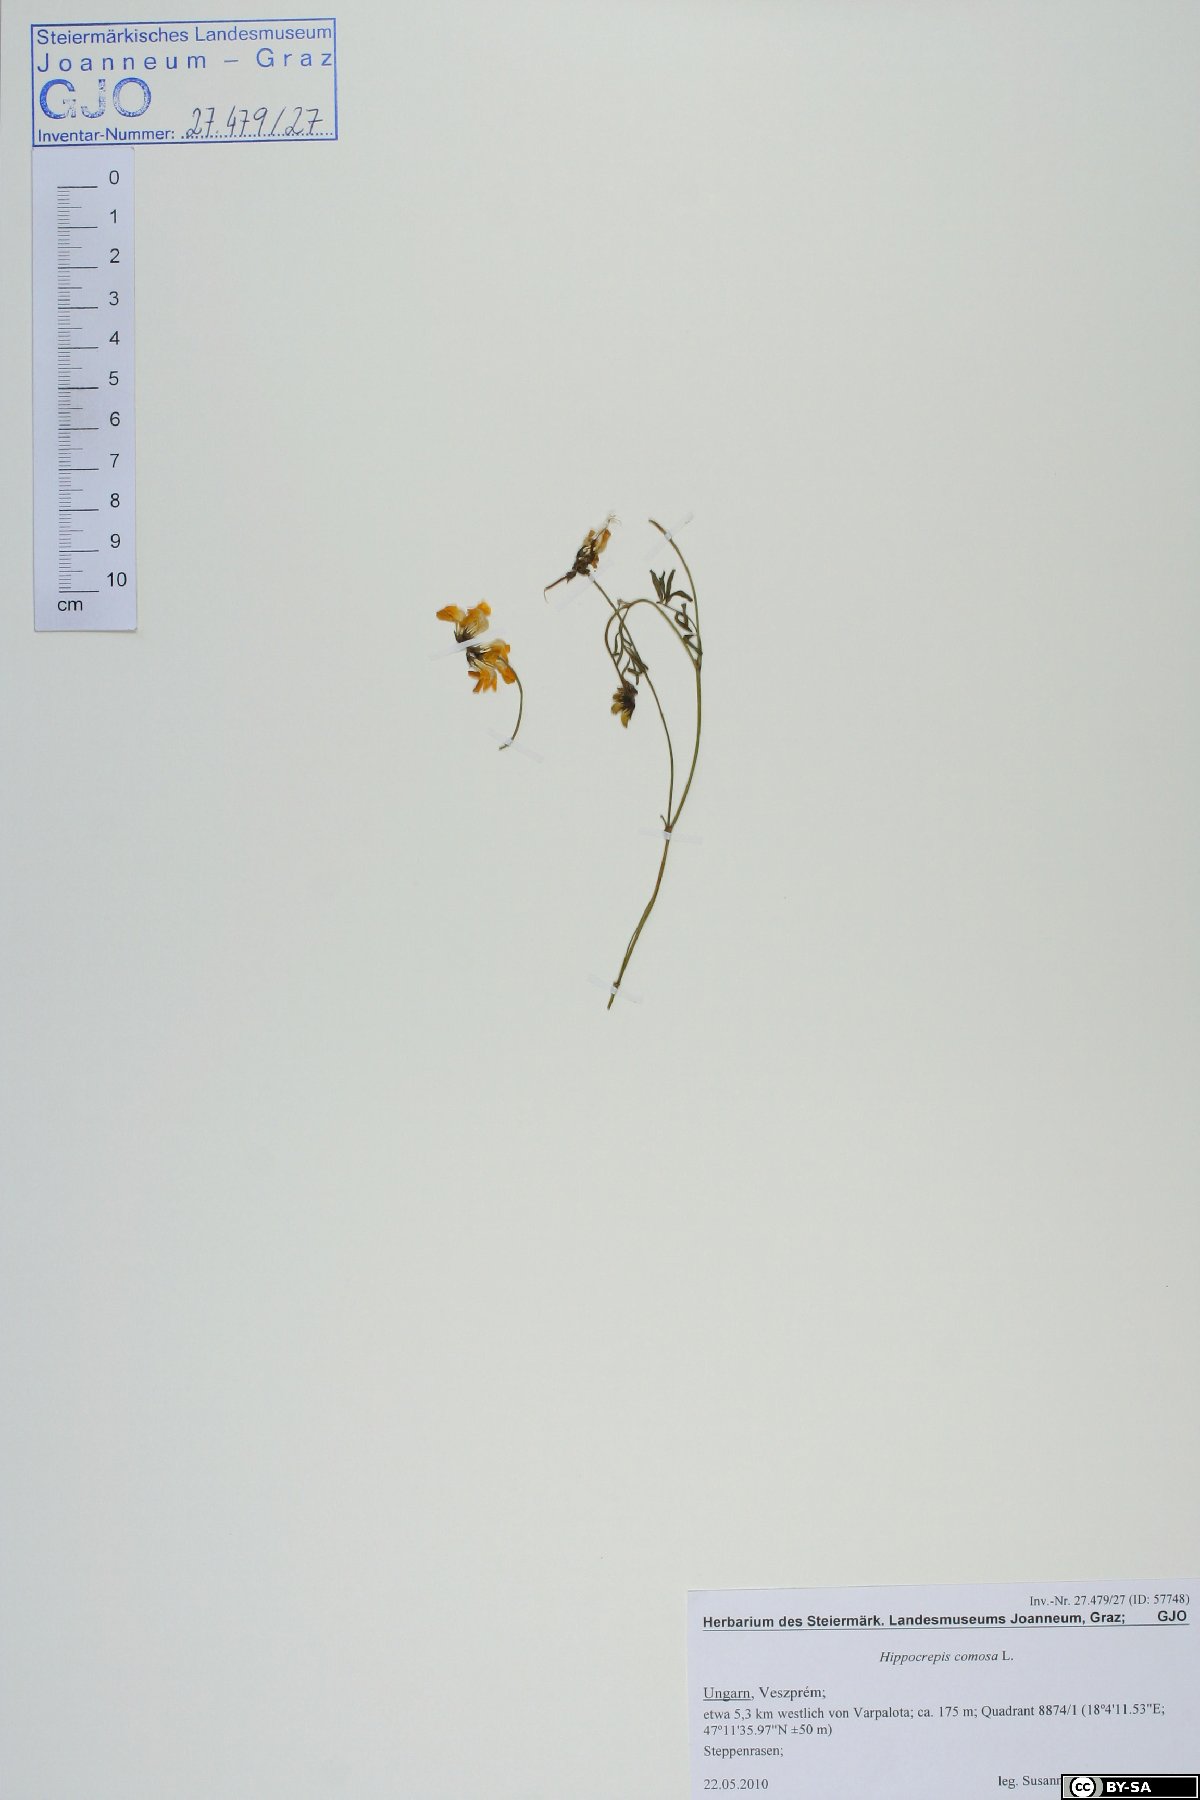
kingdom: Plantae
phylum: Tracheophyta
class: Magnoliopsida
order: Fabales
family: Fabaceae
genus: Hippocrepis
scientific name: Hippocrepis comosa
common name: Horseshoe vetch
